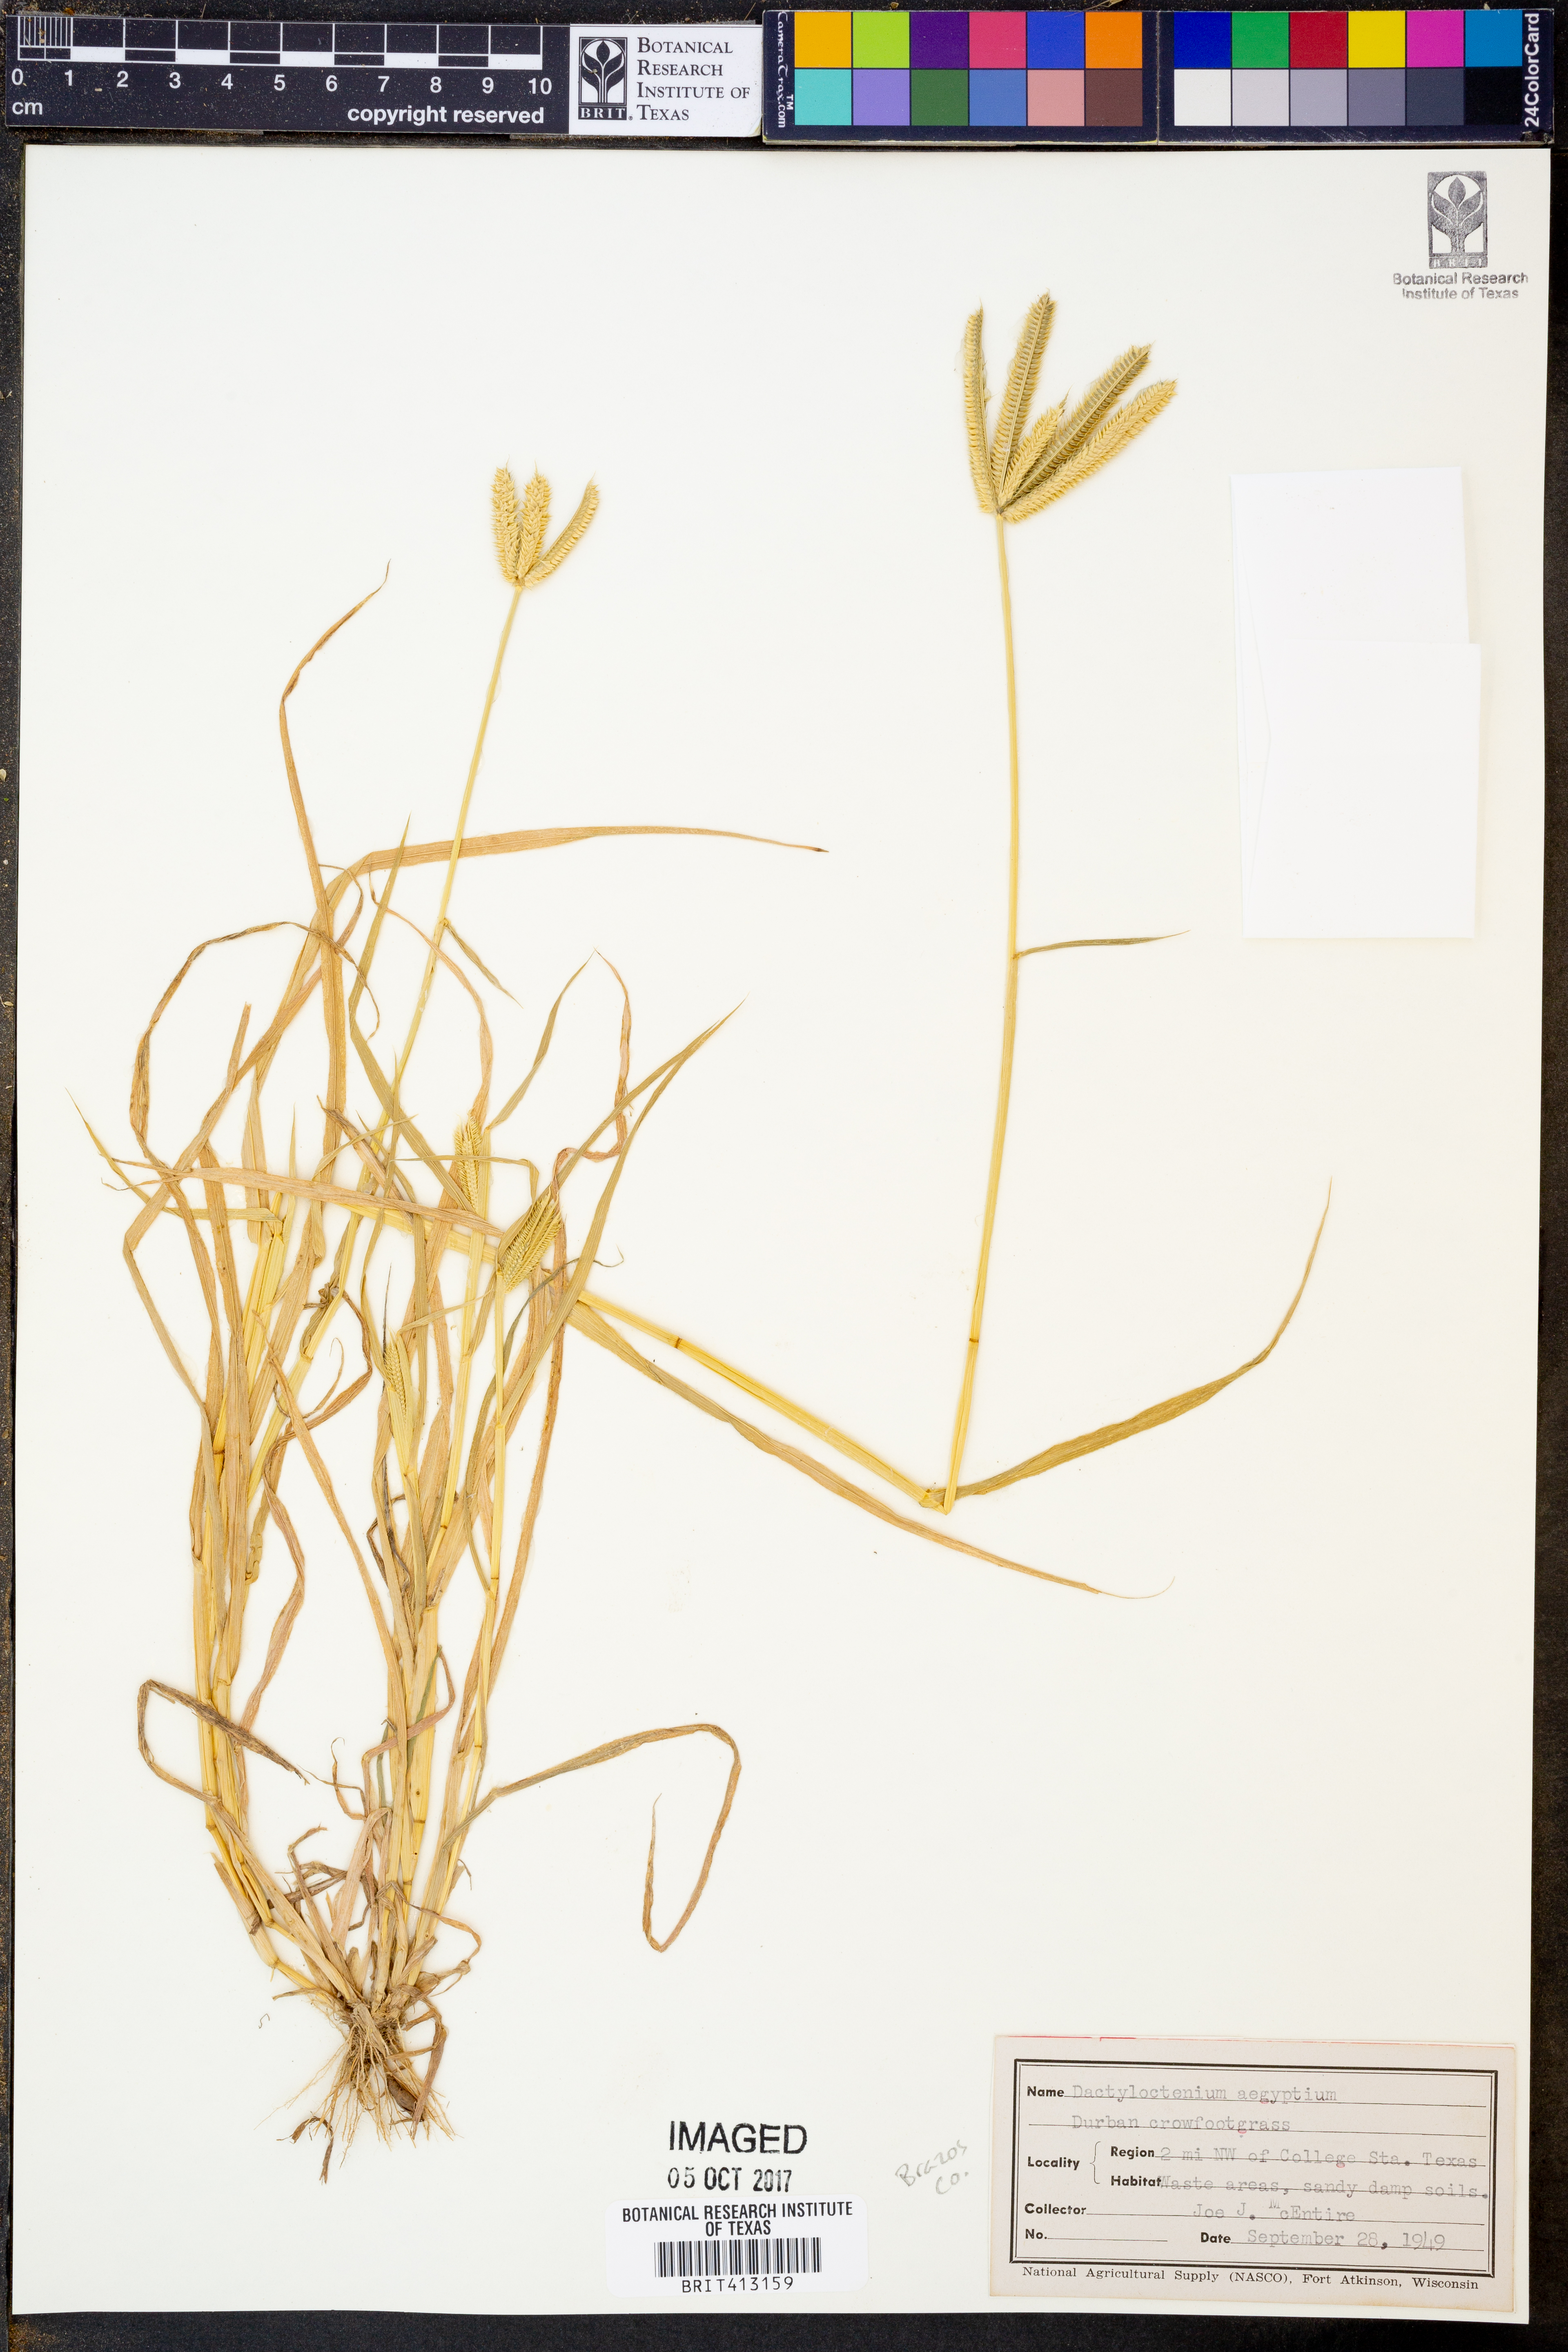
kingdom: Plantae
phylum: Tracheophyta
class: Liliopsida
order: Poales
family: Poaceae
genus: Dactyloctenium
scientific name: Dactyloctenium aegyptium
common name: Egyptian grass
